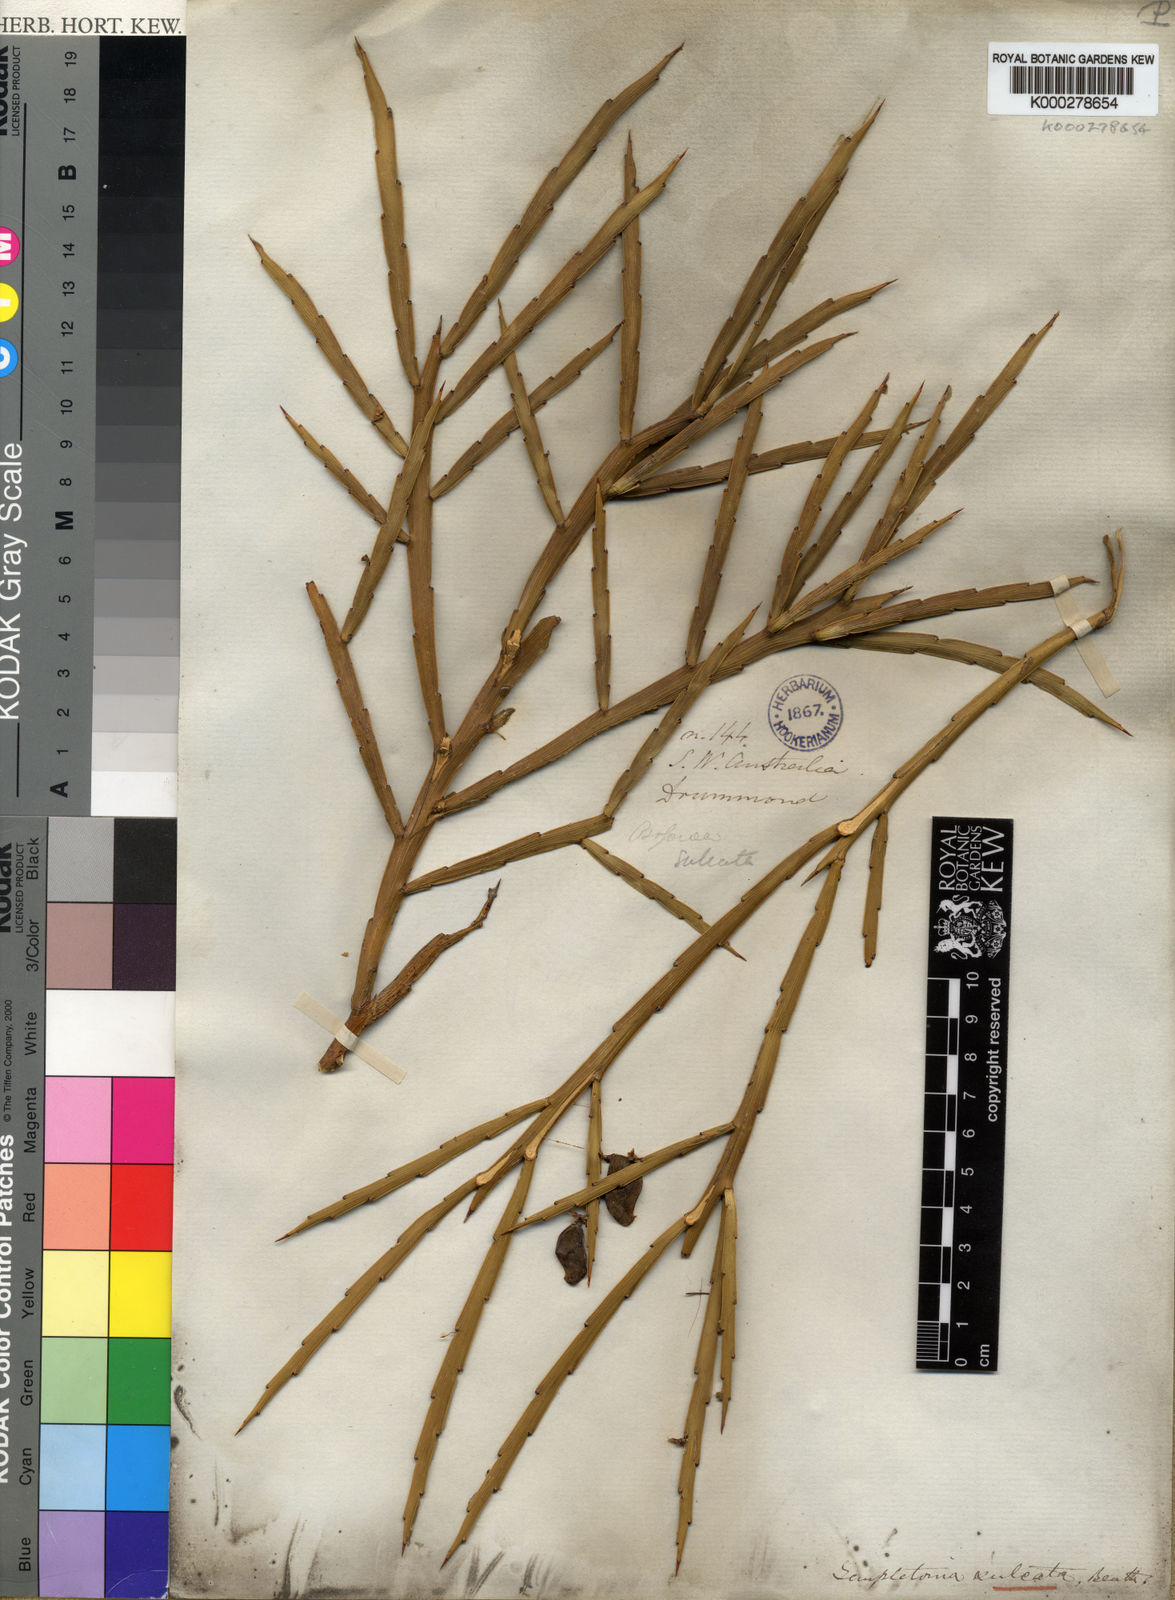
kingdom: Plantae
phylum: Tracheophyta
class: Magnoliopsida
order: Fabales
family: Fabaceae
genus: Templetonia
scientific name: Templetonia sulcata
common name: Flat mallee-pea
